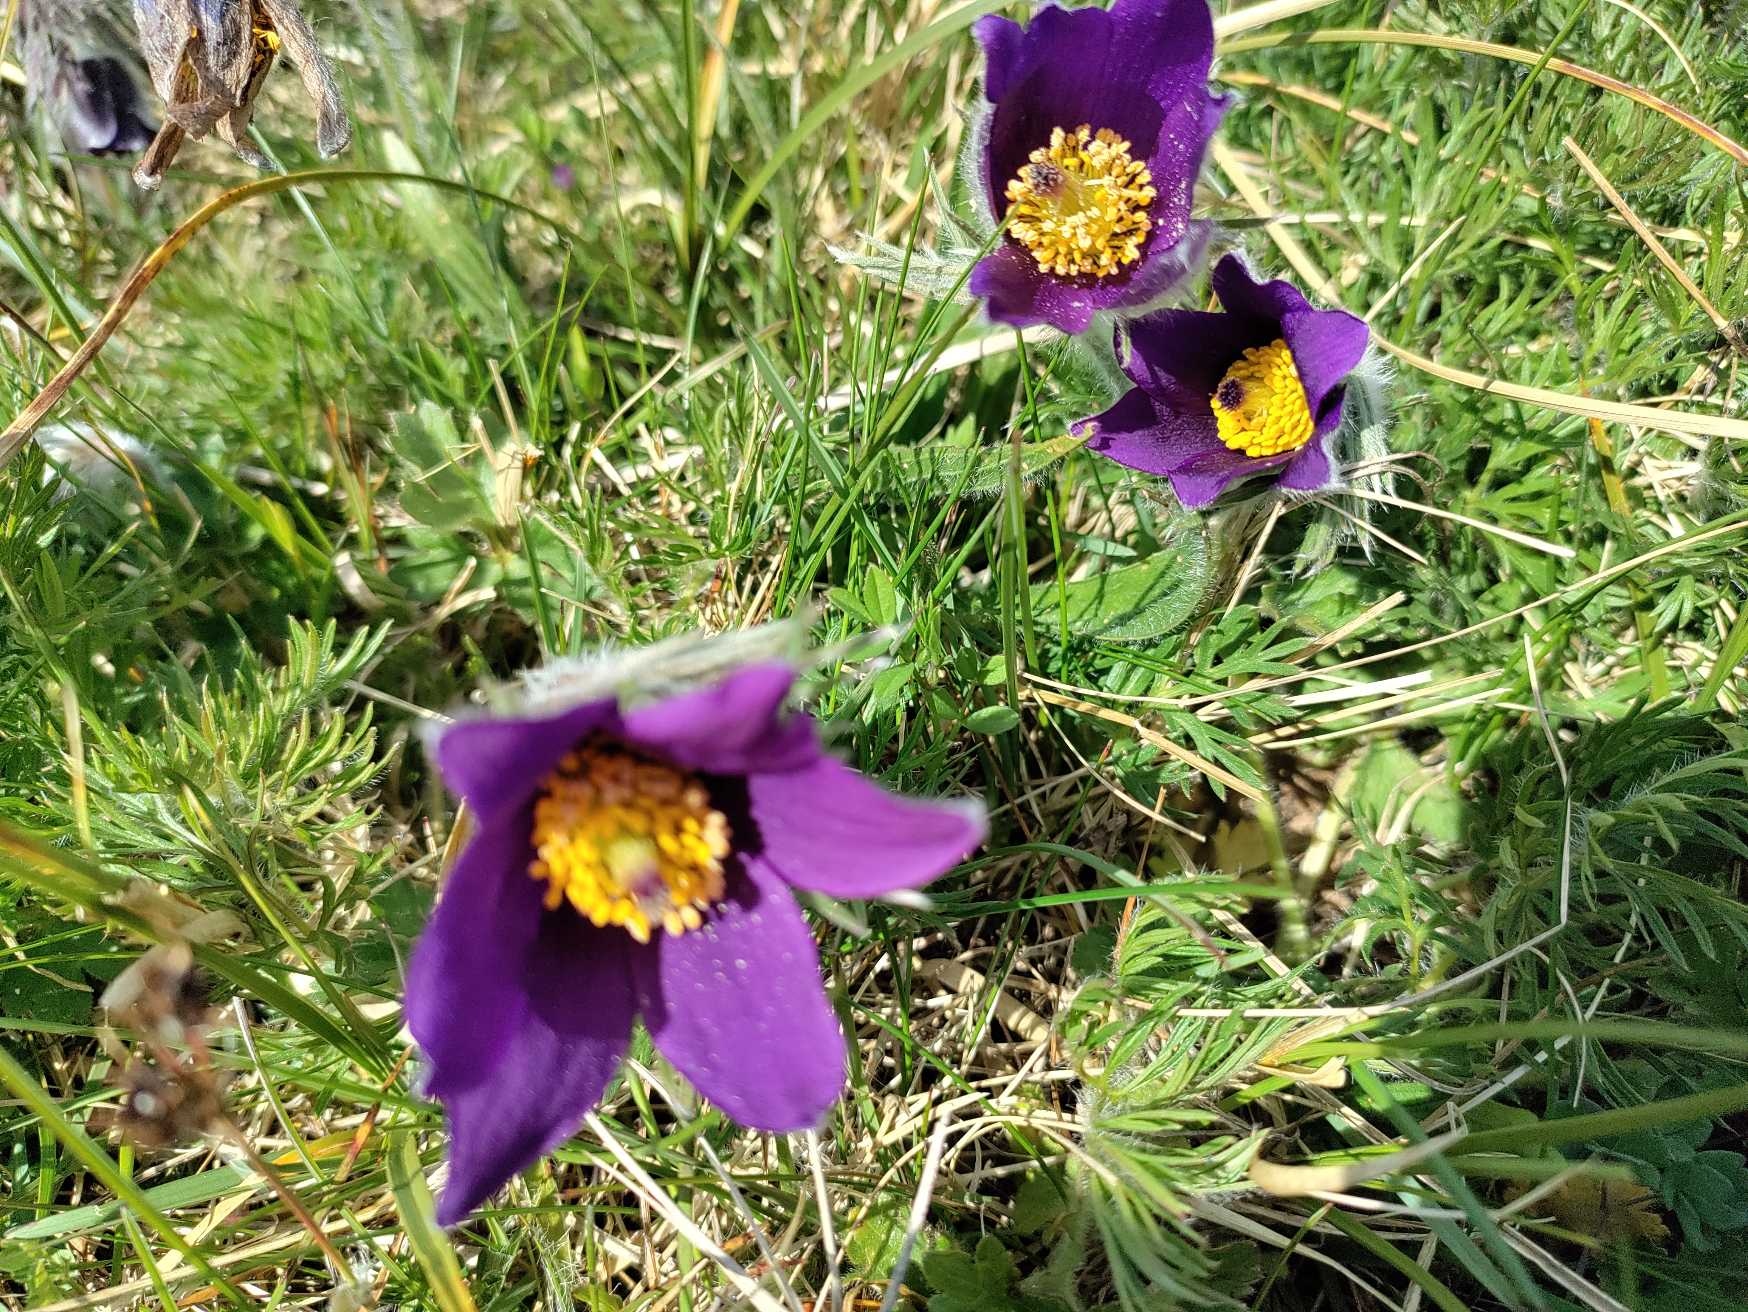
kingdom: Plantae
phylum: Tracheophyta
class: Magnoliopsida
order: Ranunculales
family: Ranunculaceae
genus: Pulsatilla
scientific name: Pulsatilla vulgaris
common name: Opret kobjælde
